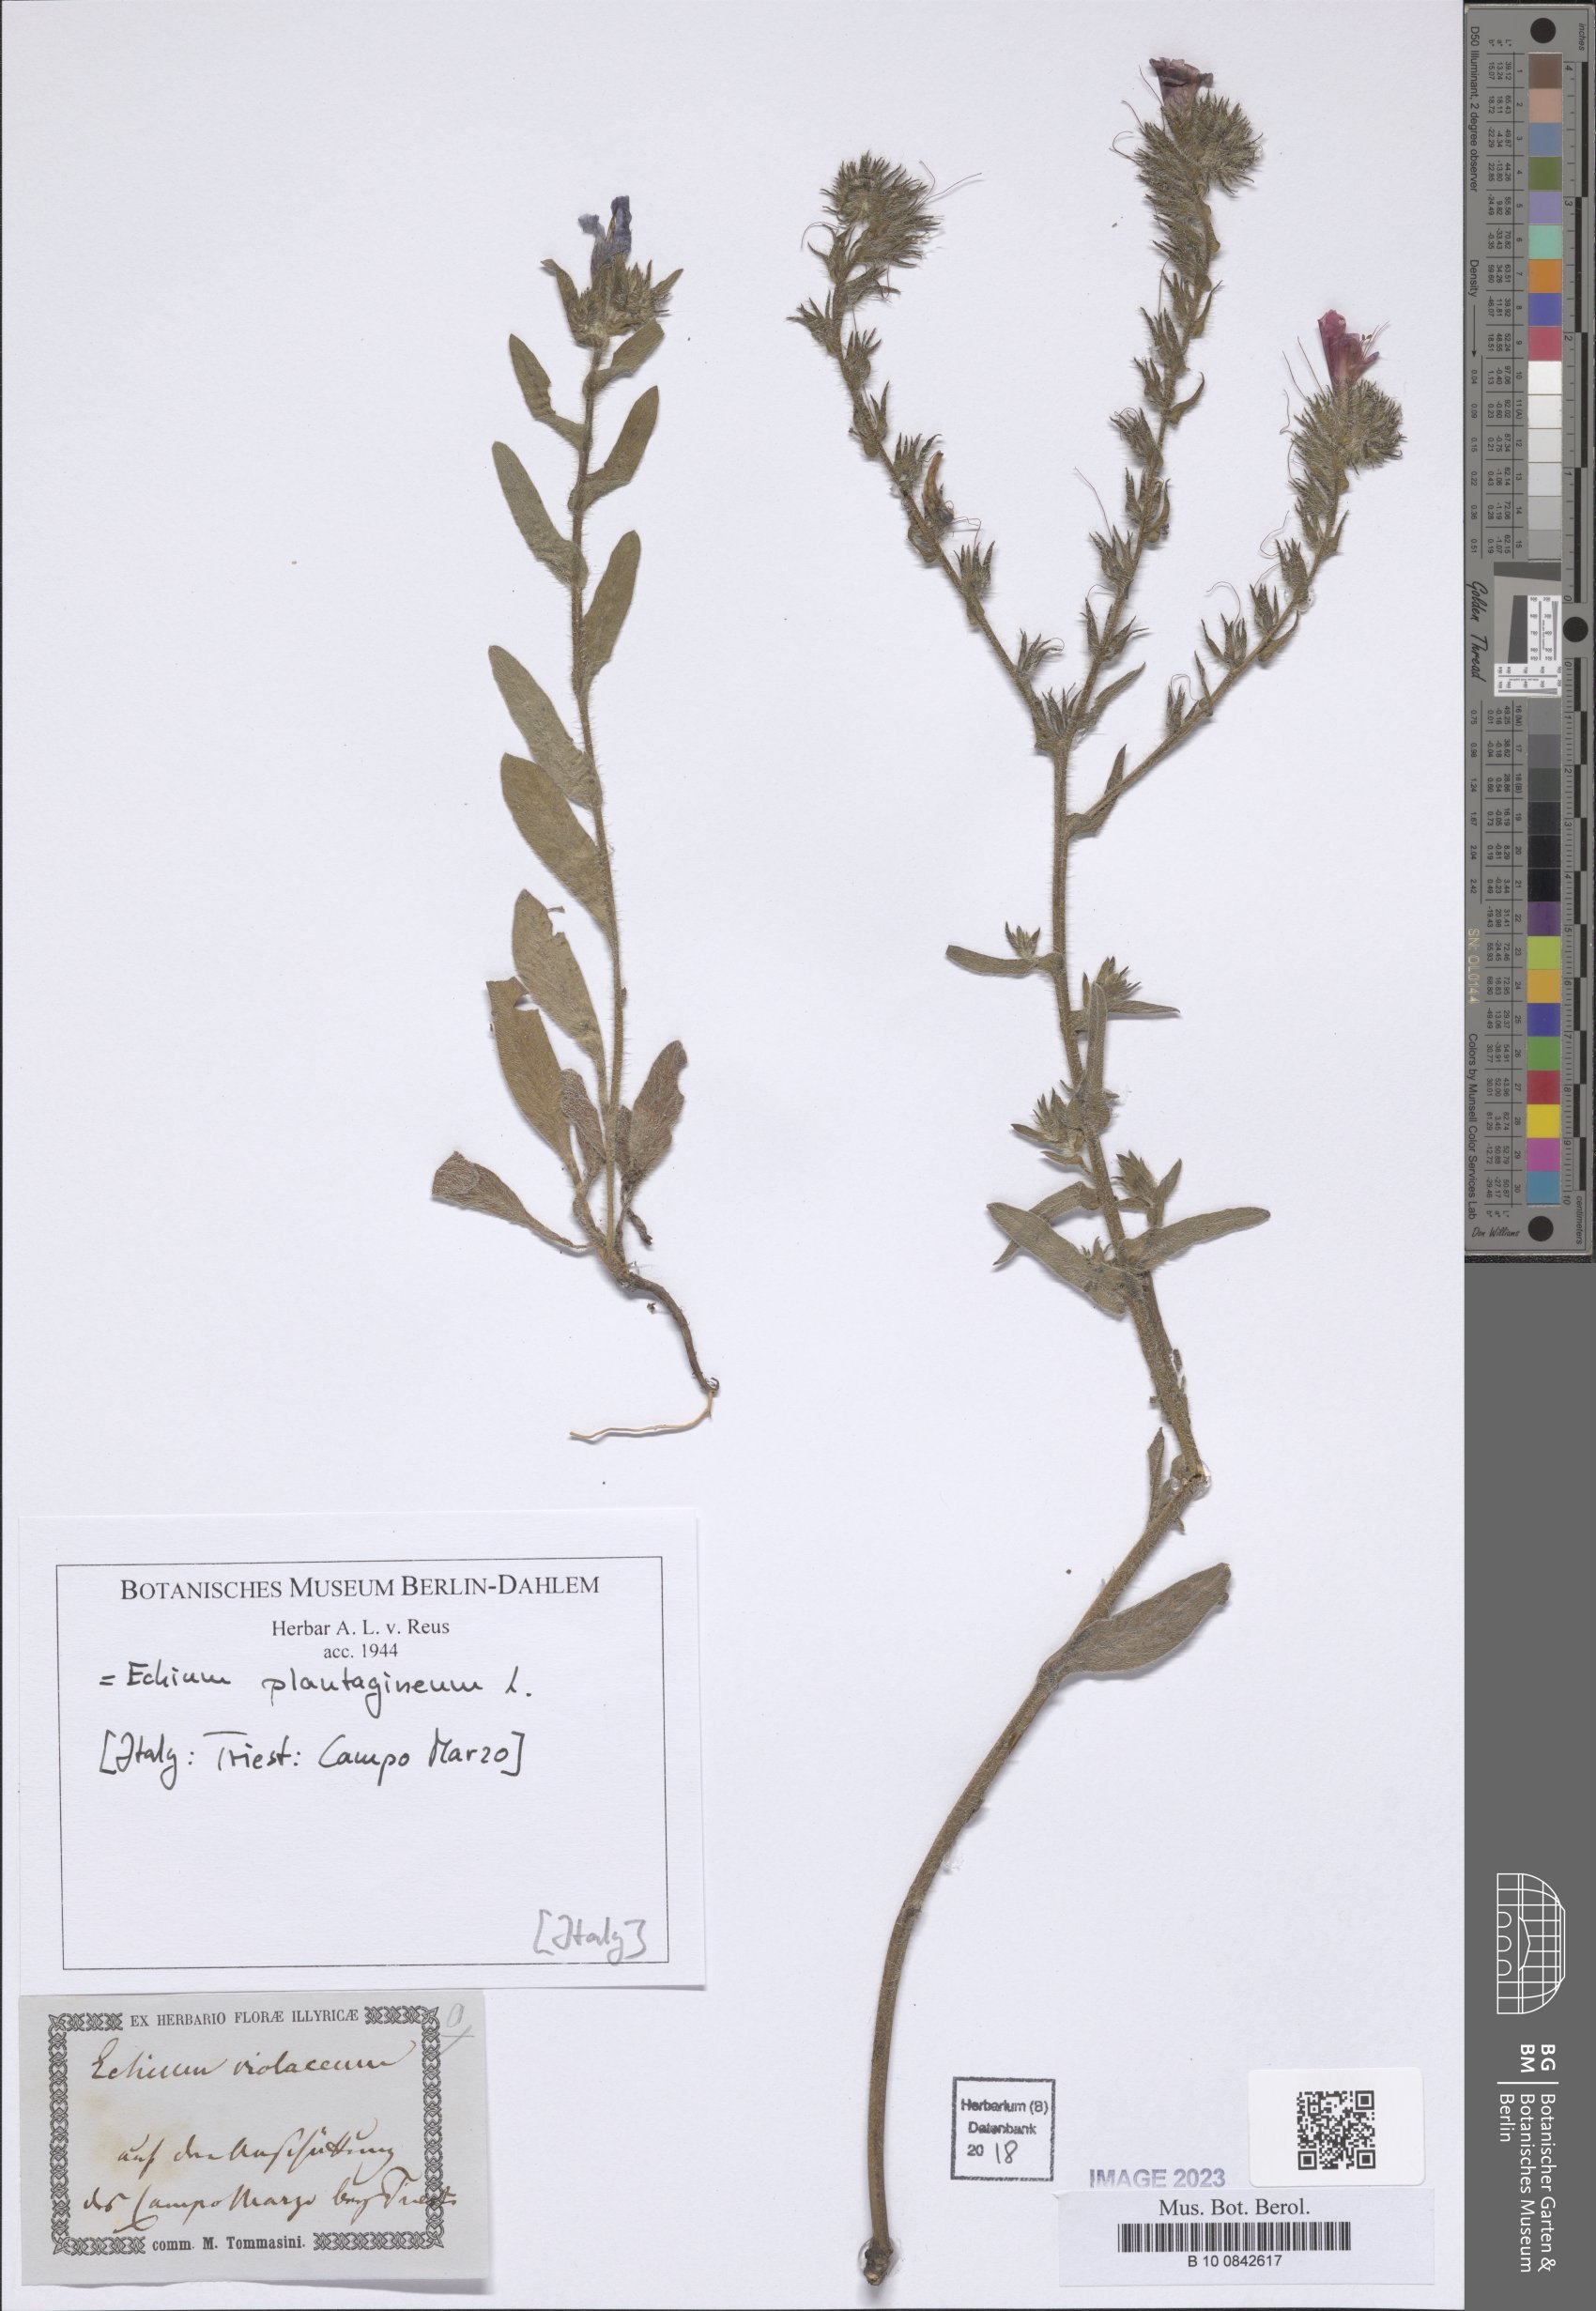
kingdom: Plantae
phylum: Tracheophyta
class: Magnoliopsida
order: Boraginales
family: Boraginaceae
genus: Echium
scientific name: Echium plantagineum
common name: Purple viper's-bugloss
